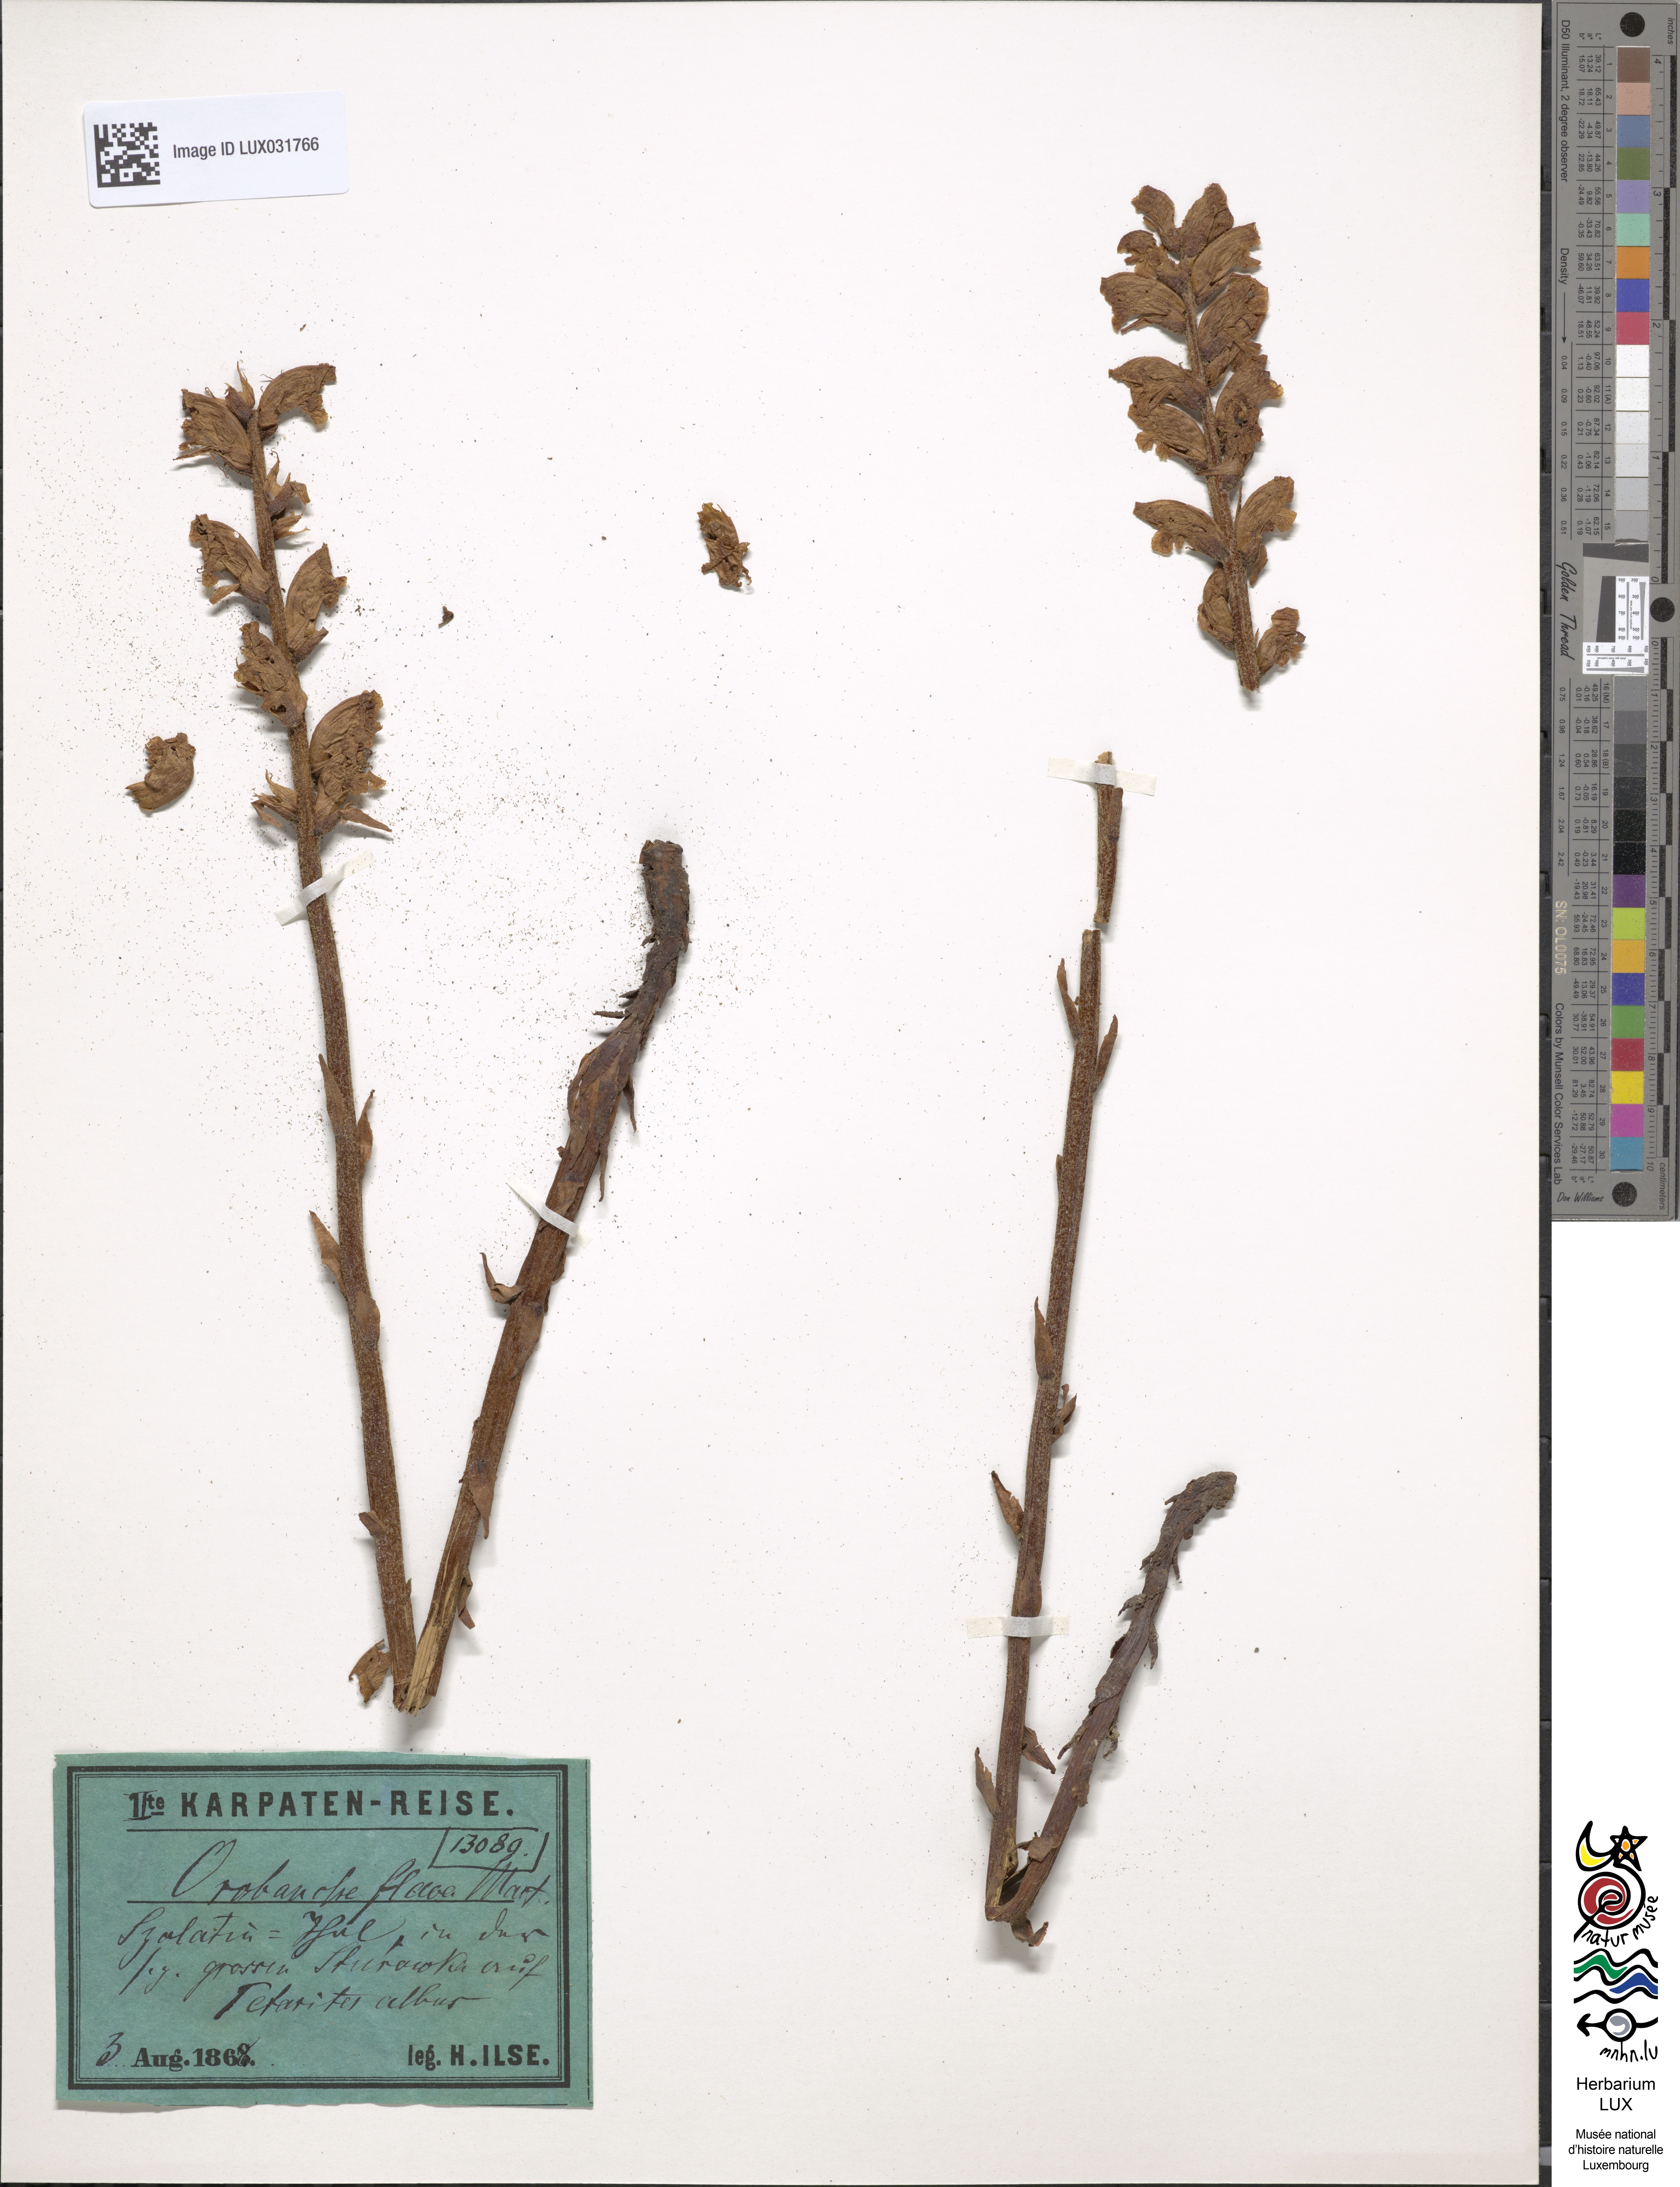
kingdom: Plantae
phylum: Tracheophyta
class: Magnoliopsida
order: Lamiales
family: Orobanchaceae
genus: Orobanche
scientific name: Orobanche flava
